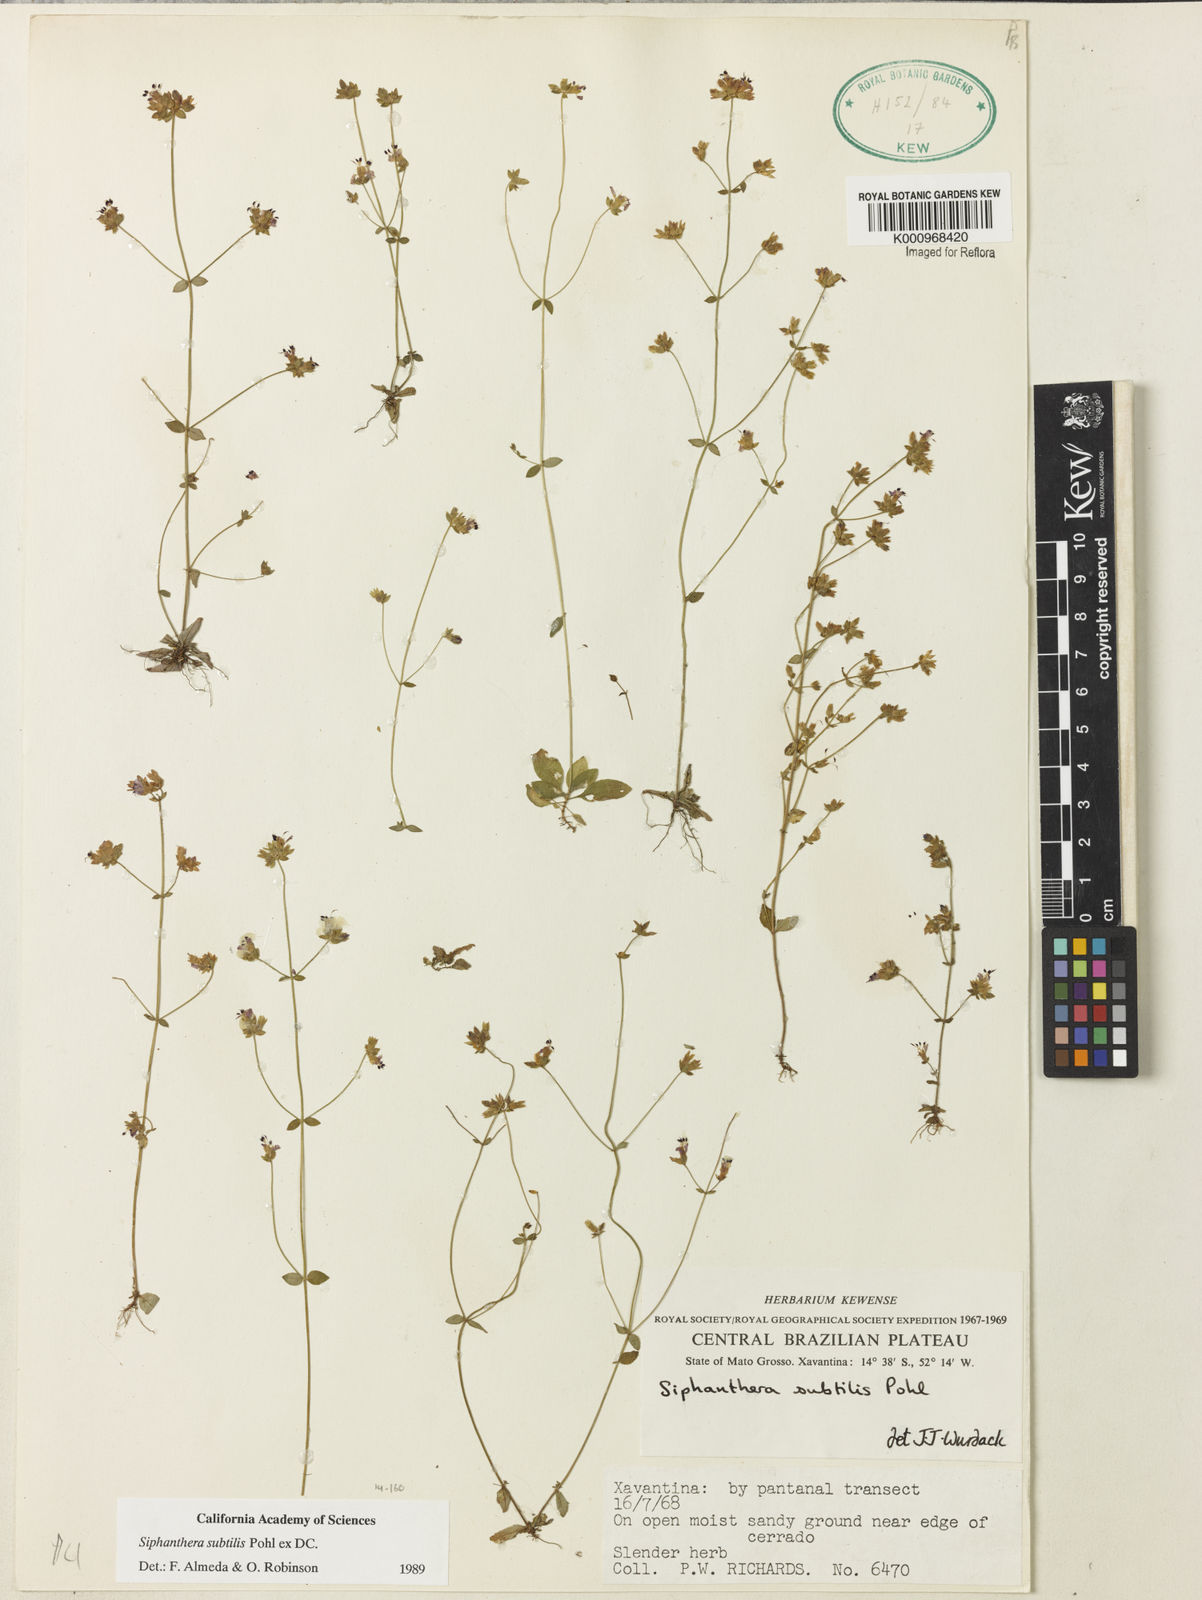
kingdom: Plantae
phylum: Tracheophyta
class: Magnoliopsida
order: Myrtales
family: Melastomataceae
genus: Siphanthera
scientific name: Siphanthera
